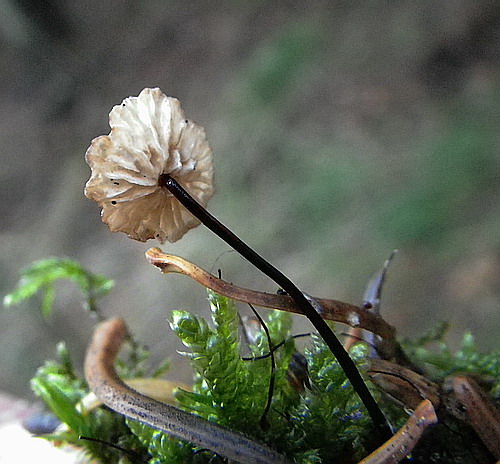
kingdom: Fungi
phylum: Basidiomycota
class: Agaricomycetes
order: Agaricales
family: Omphalotaceae
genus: Gymnopus
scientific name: Gymnopus androsaceus
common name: trådstokket fladhat
